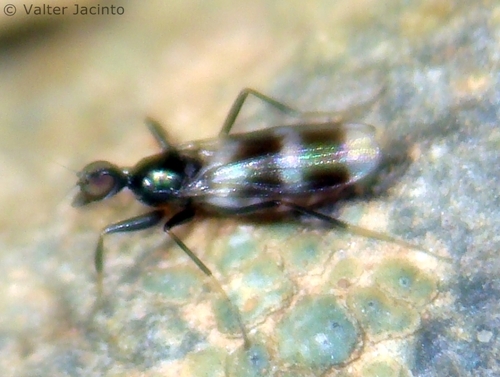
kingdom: Animalia
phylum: Arthropoda
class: Insecta
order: Diptera
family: Hybotidae
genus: Tachydromia
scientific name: Tachydromia arrogans
